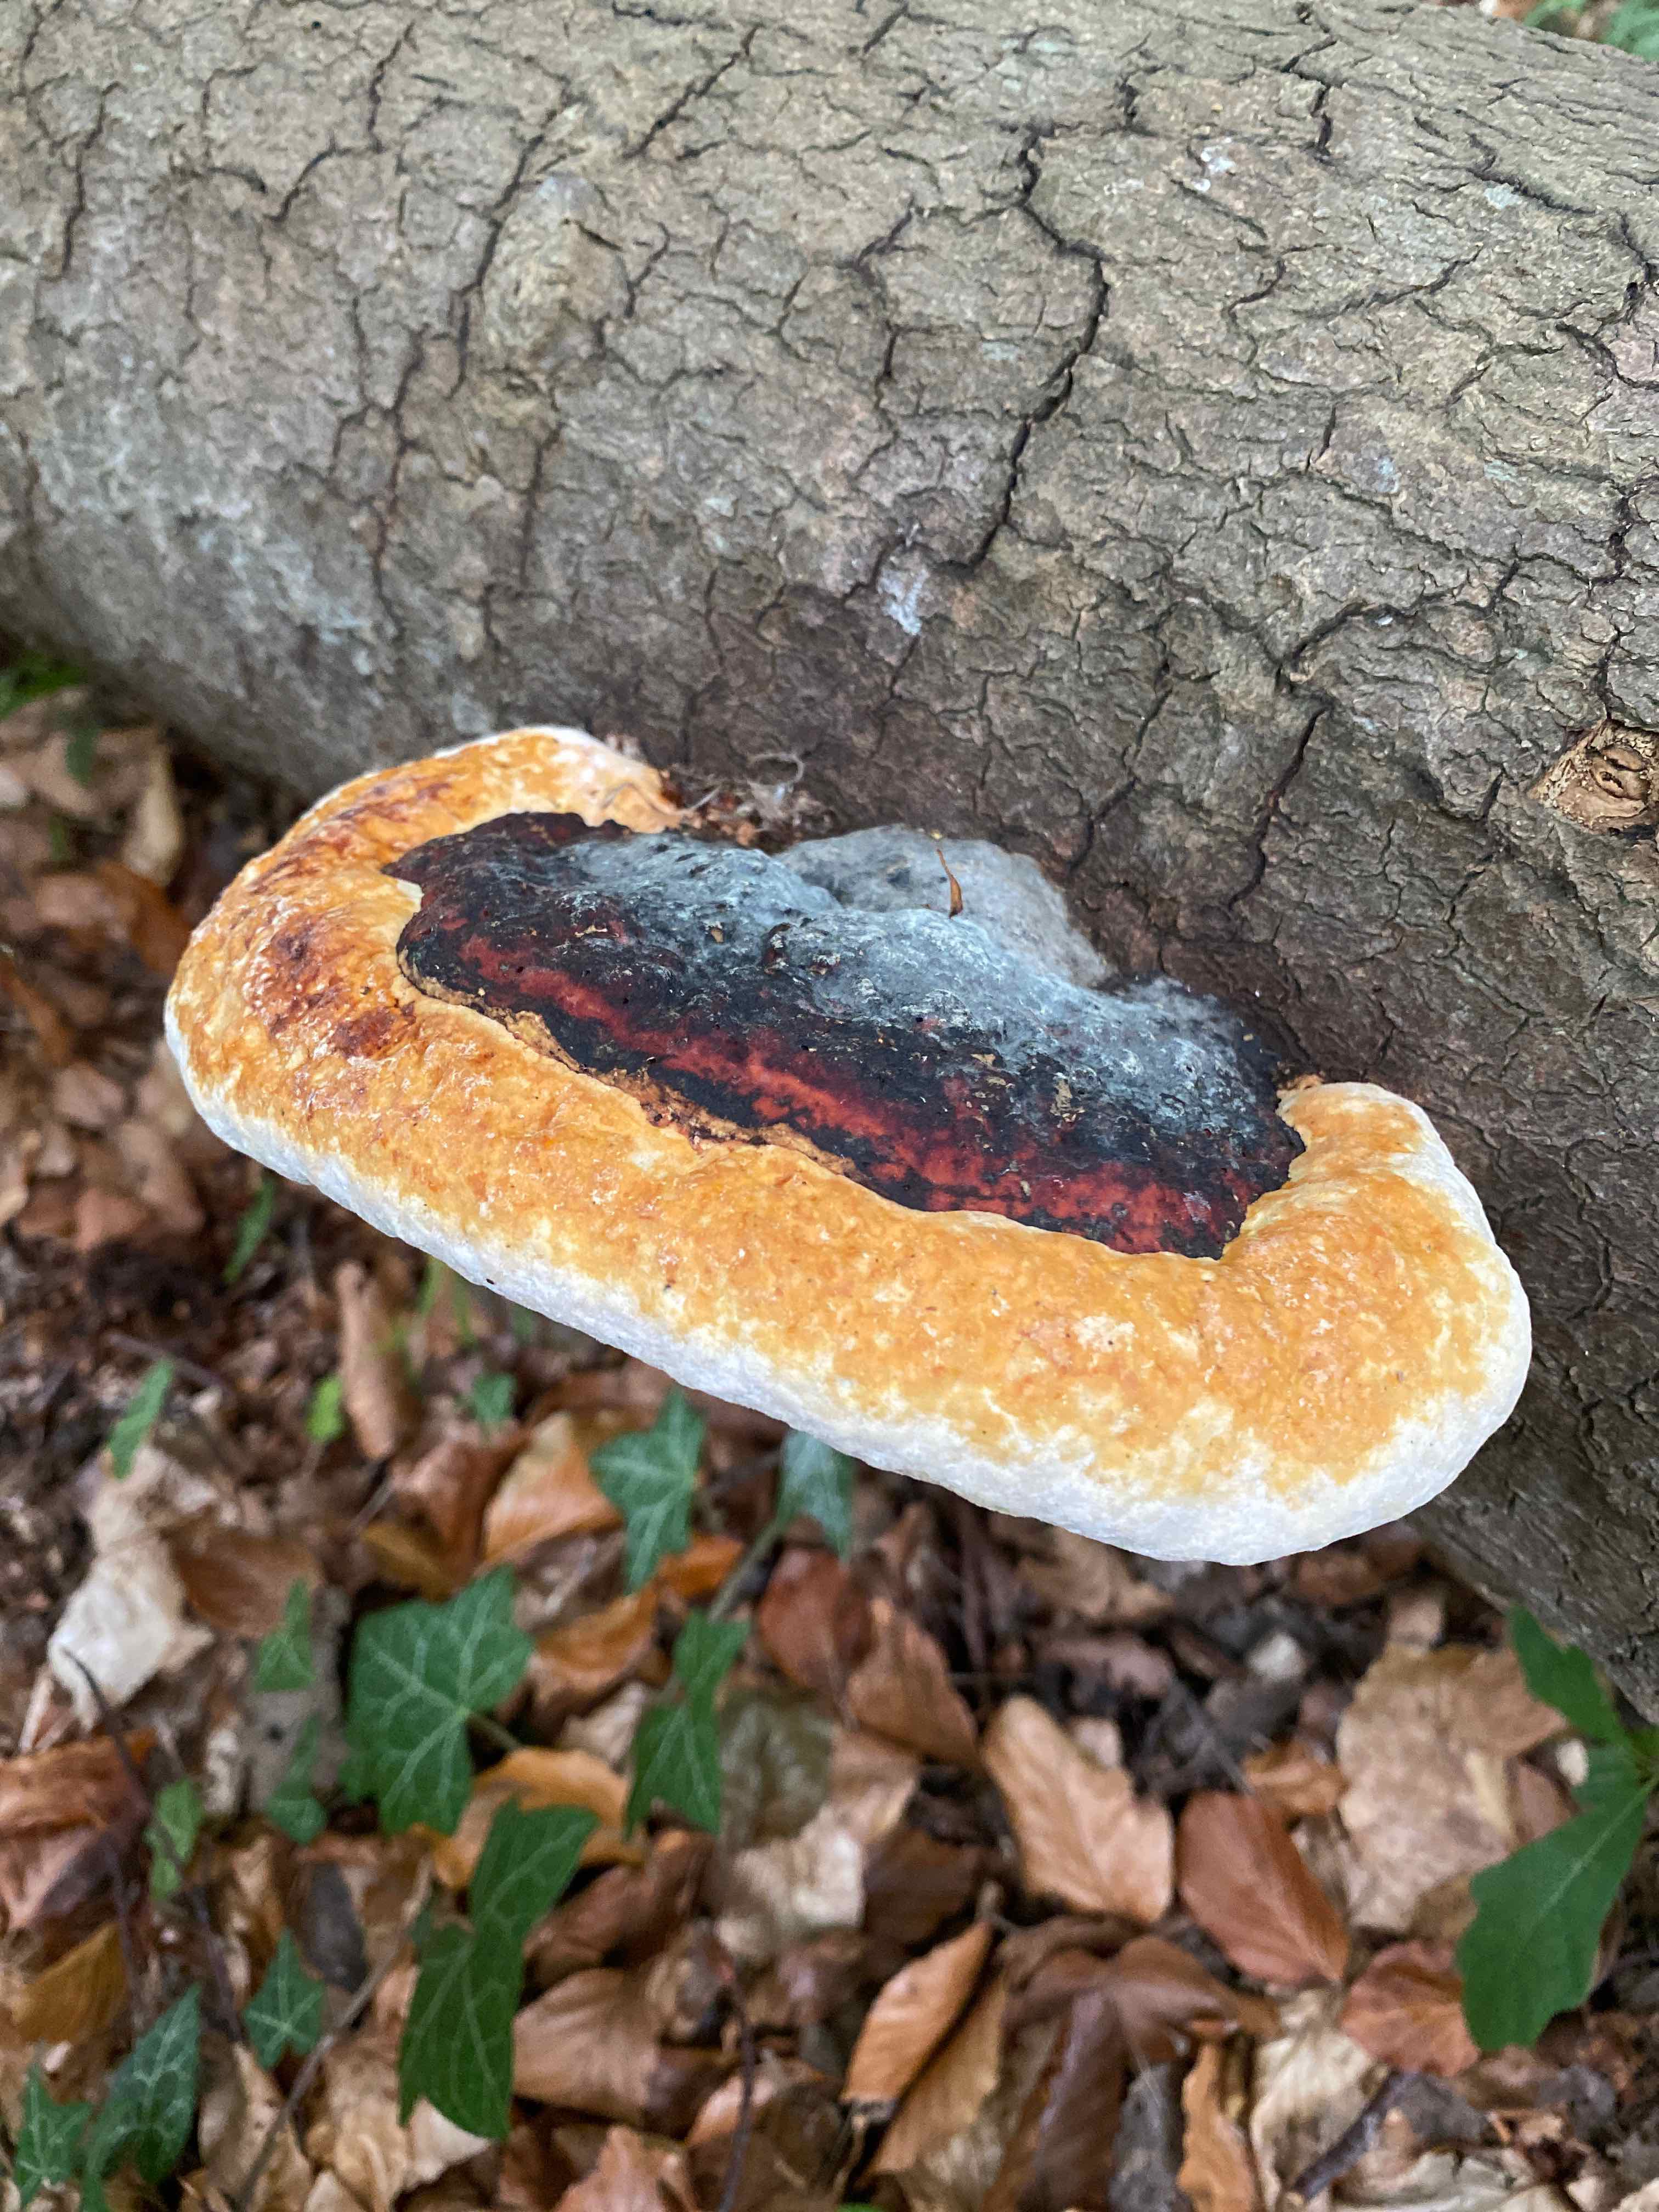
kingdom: Fungi
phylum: Basidiomycota
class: Agaricomycetes
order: Polyporales
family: Fomitopsidaceae
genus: Fomitopsis
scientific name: Fomitopsis pinicola
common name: randbæltet hovporesvamp
